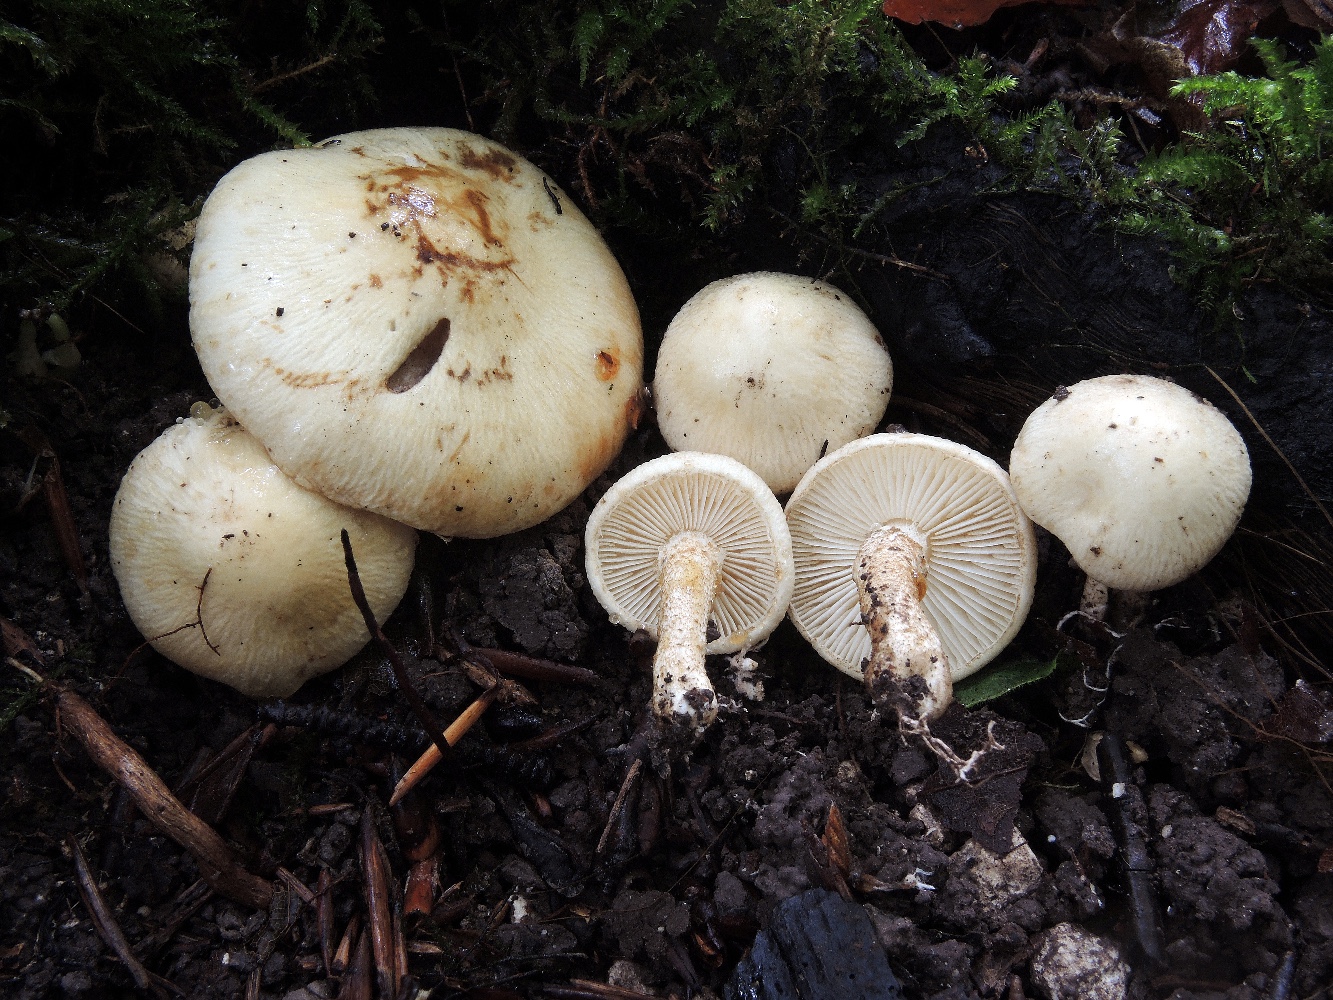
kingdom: Fungi
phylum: Basidiomycota
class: Agaricomycetes
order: Agaricales
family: Agaricaceae
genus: Chamaemyces
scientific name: Chamaemyces fracidus
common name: dråbehat
